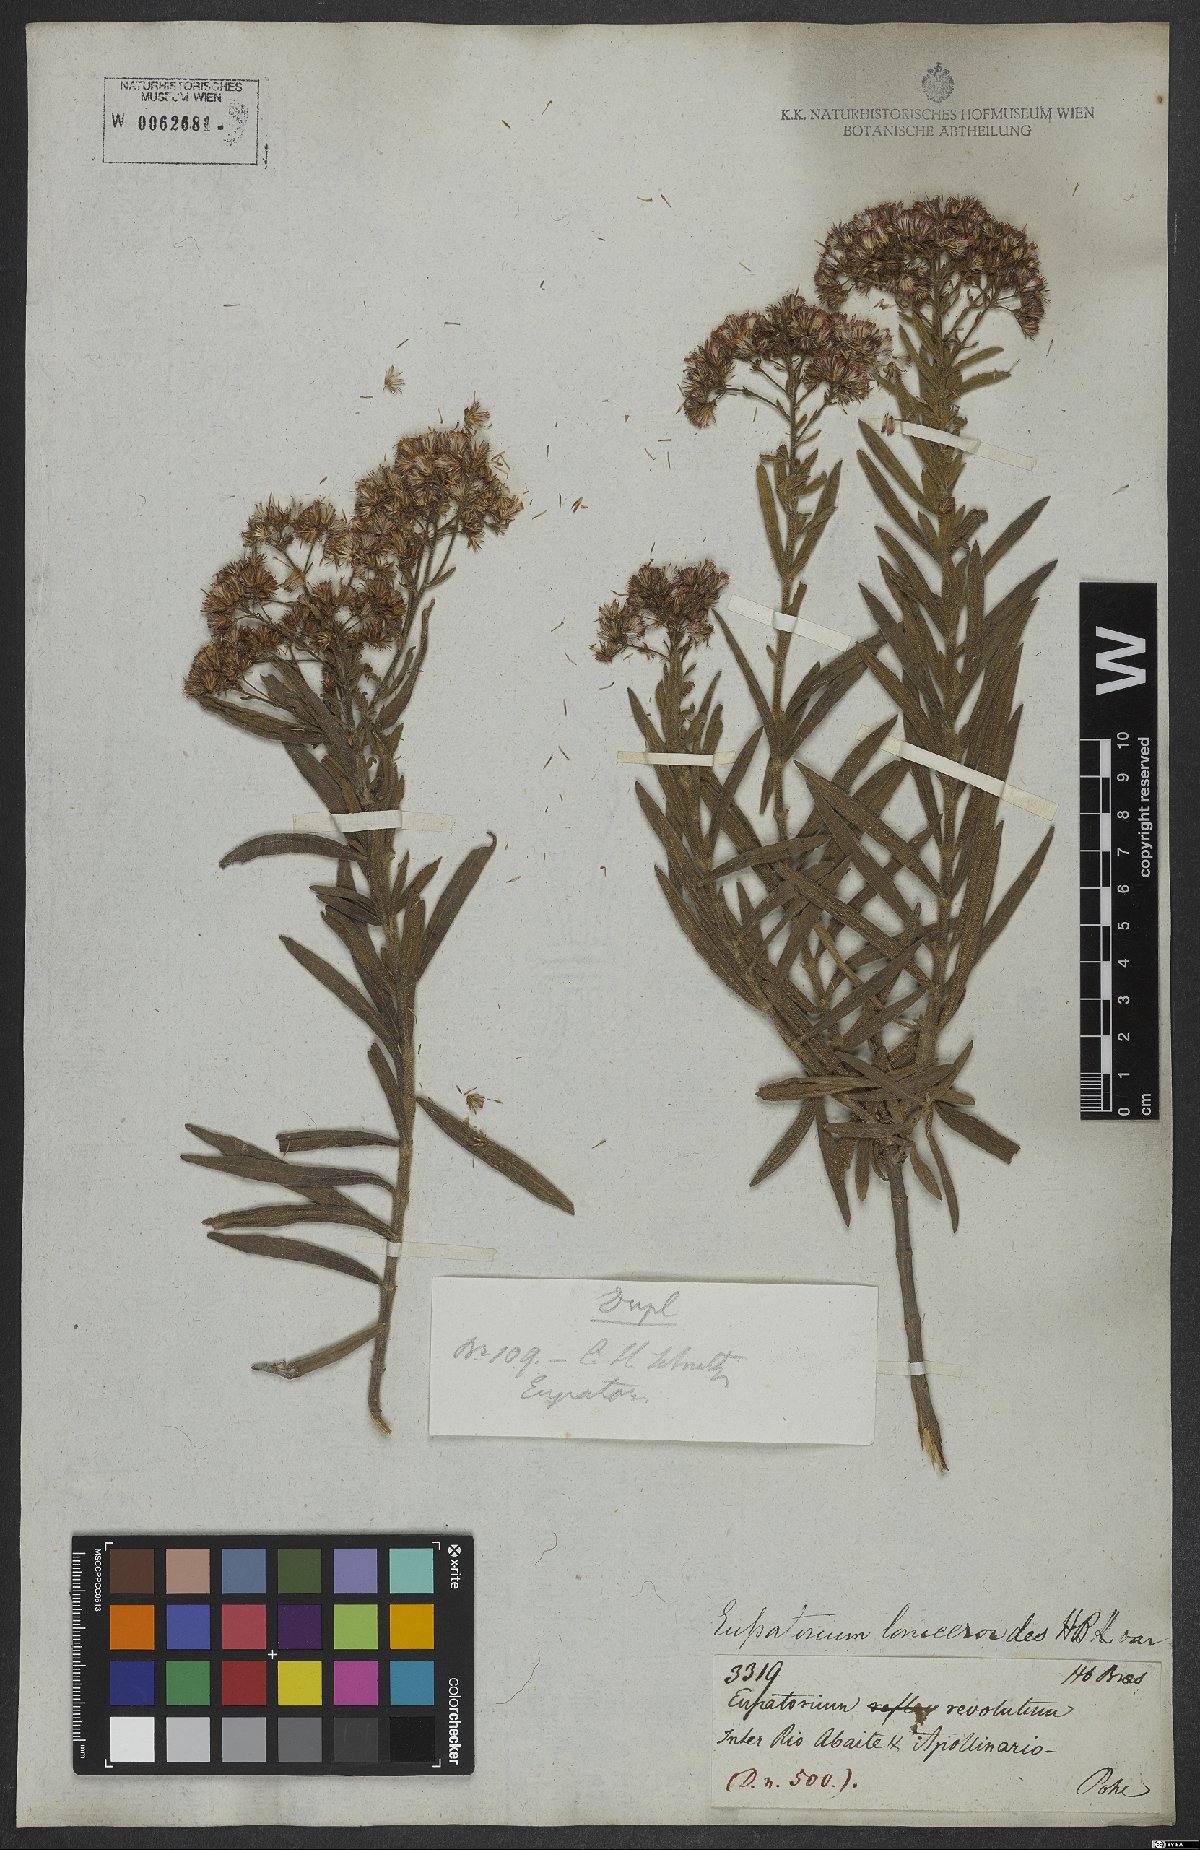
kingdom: Plantae
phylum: Tracheophyta
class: Magnoliopsida
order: Asterales
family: Asteraceae
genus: Ayapana
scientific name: Ayapana amygdalina
